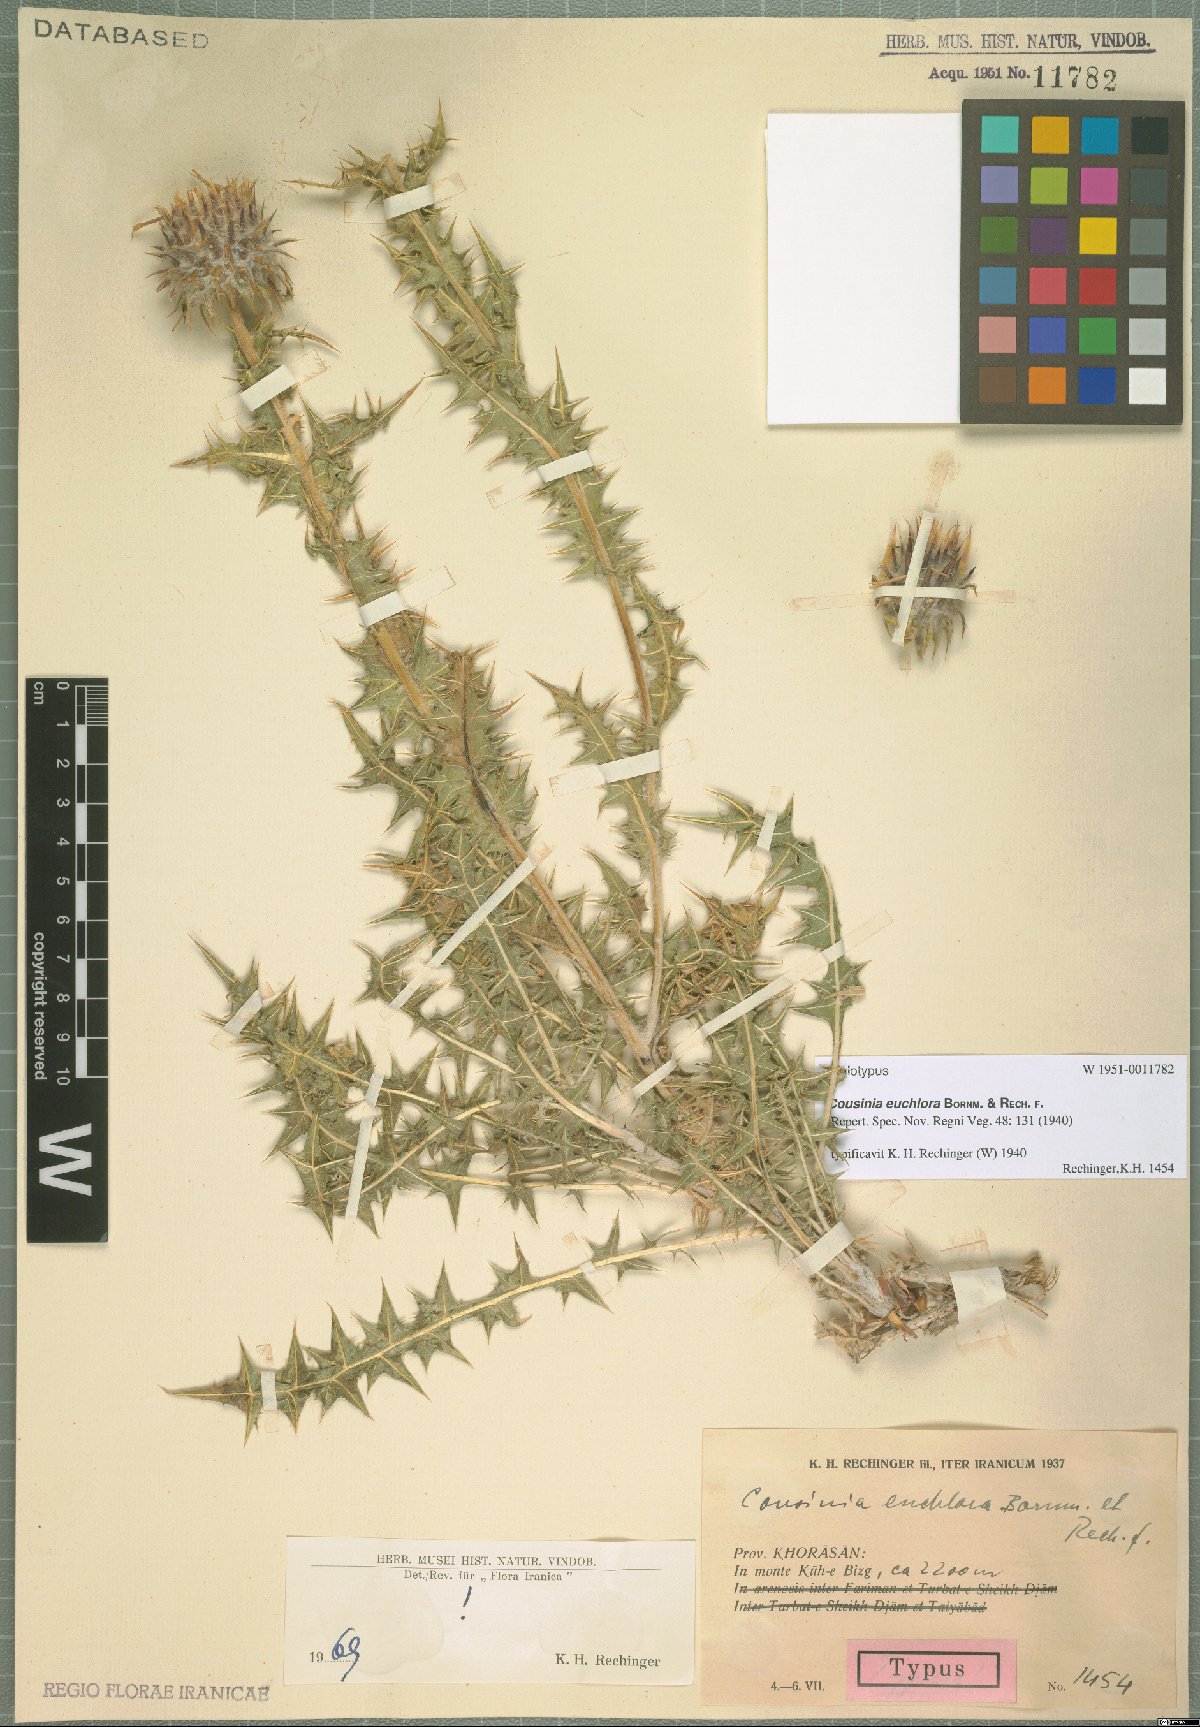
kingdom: Plantae
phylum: Tracheophyta
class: Magnoliopsida
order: Asterales
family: Asteraceae
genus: Cousinia
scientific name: Cousinia euchlora
